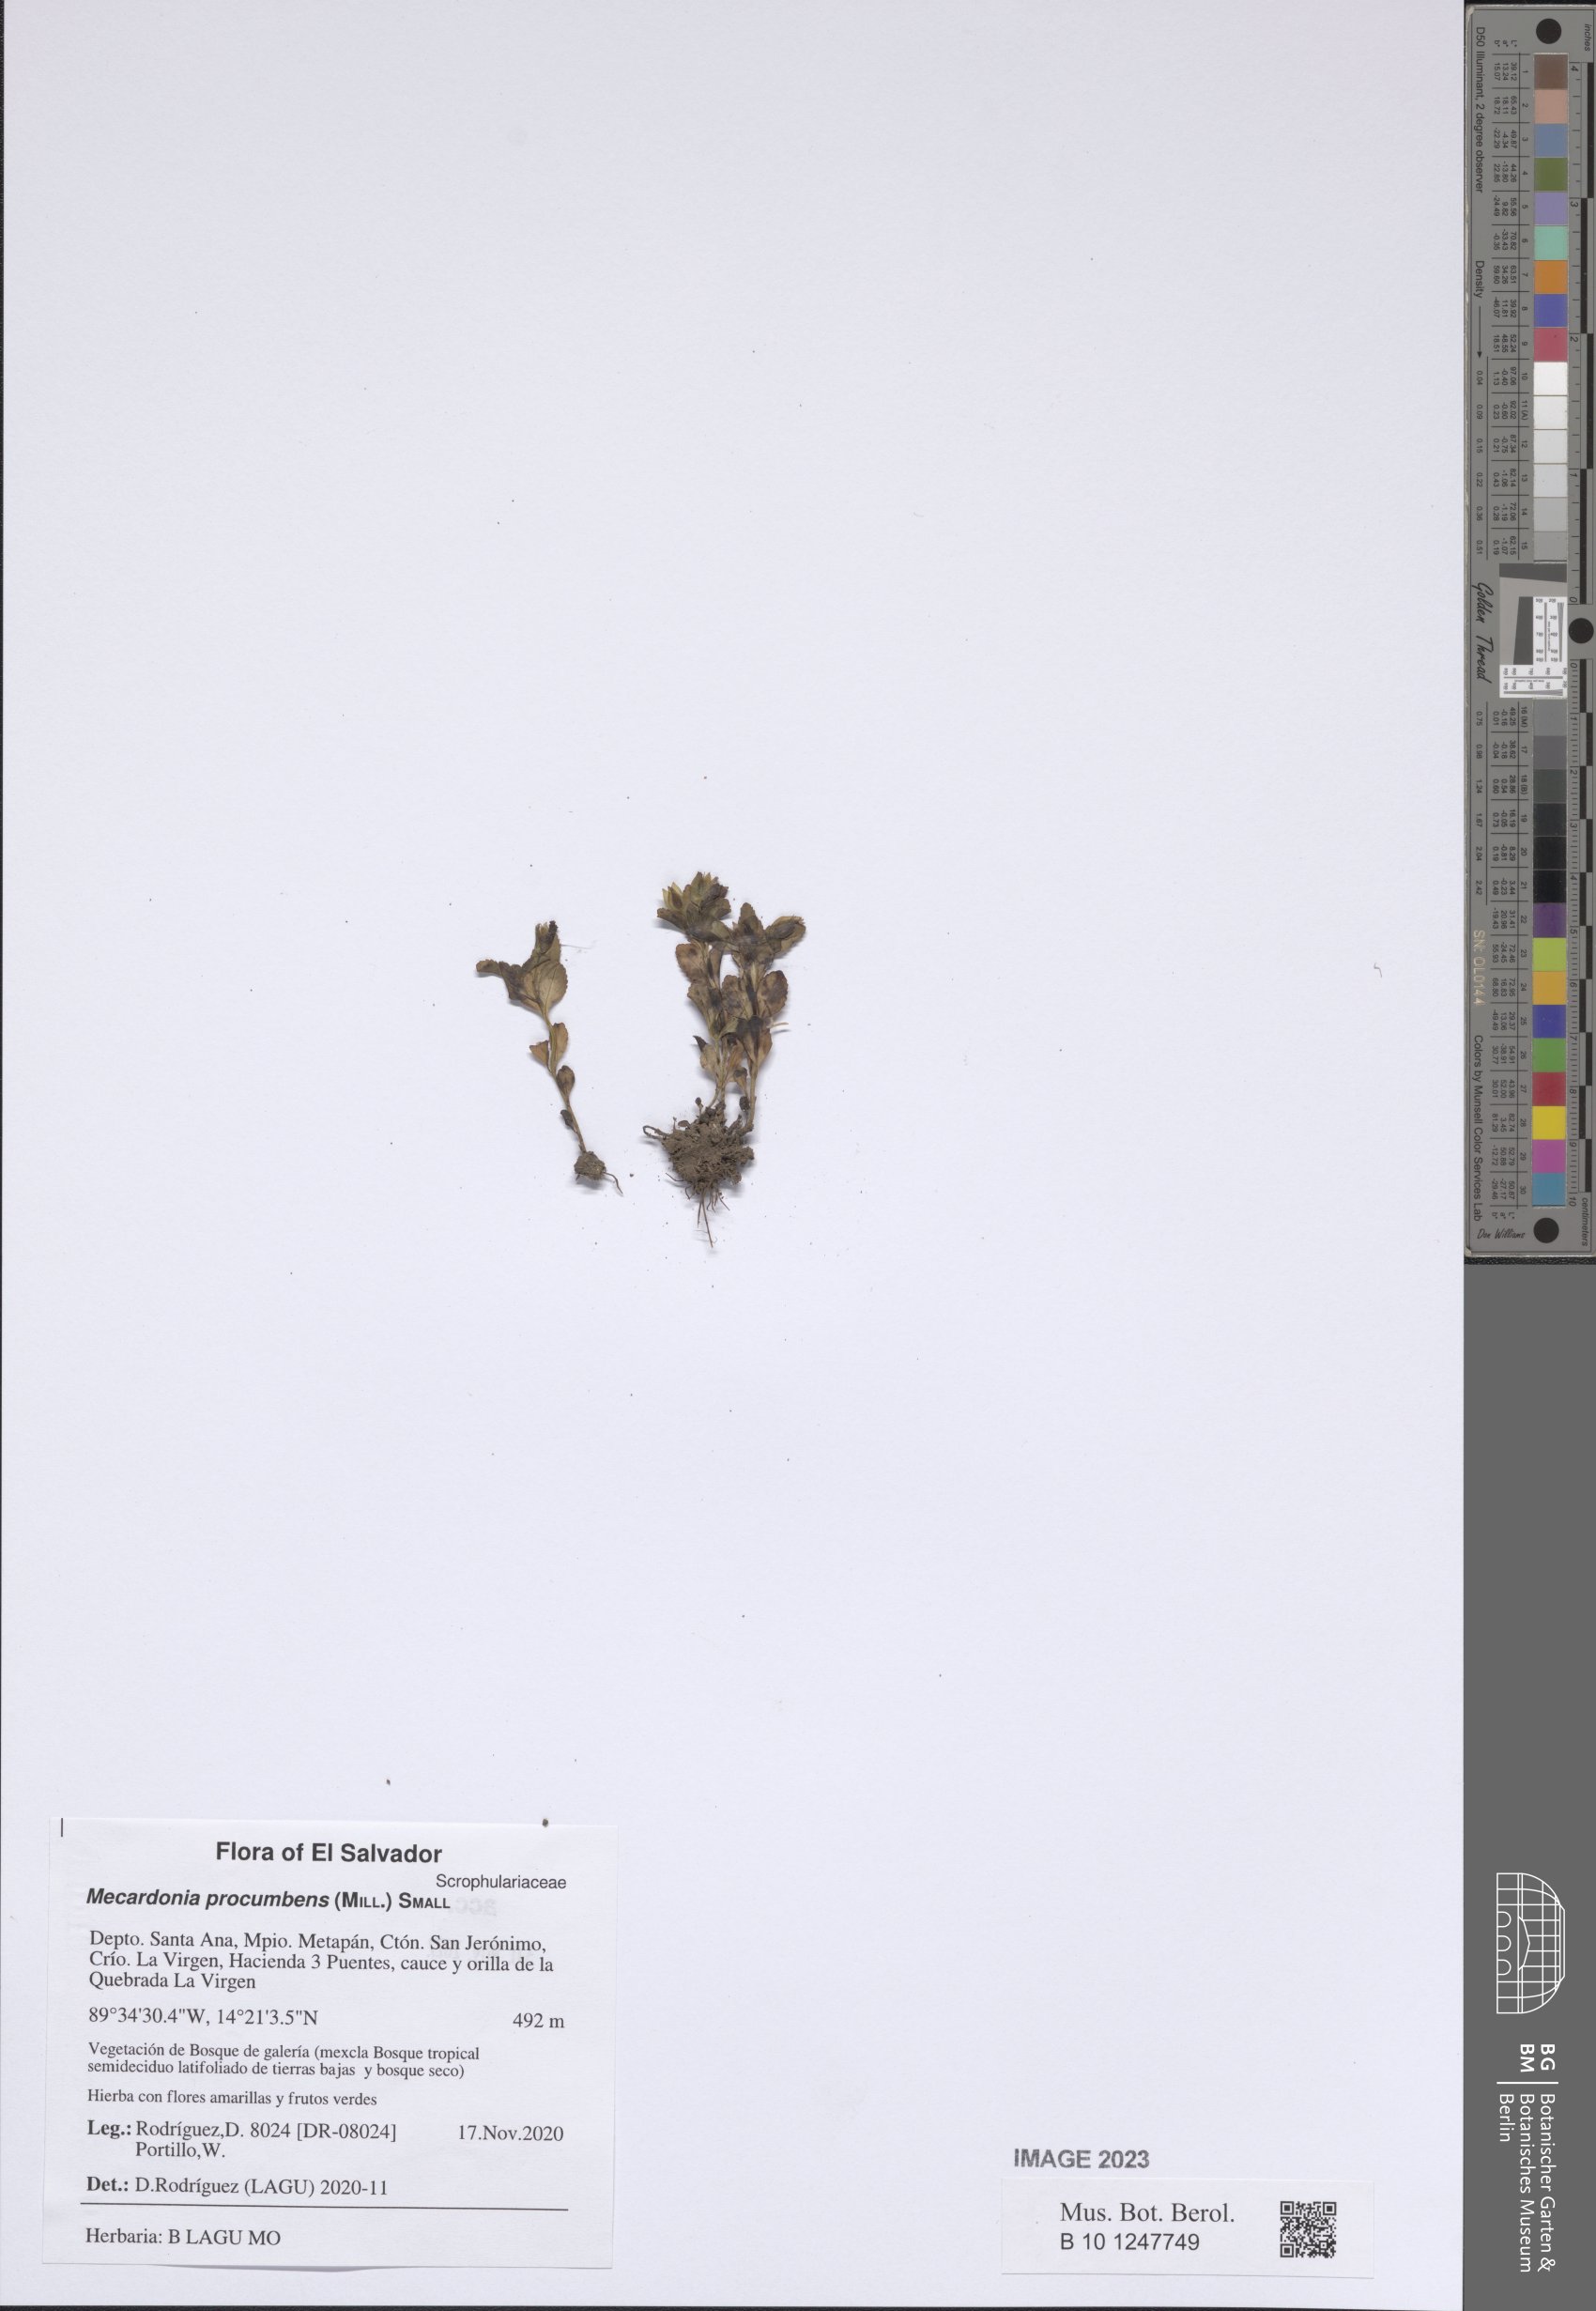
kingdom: Plantae
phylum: Tracheophyta
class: Magnoliopsida
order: Lamiales
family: Plantaginaceae
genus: Mecardonia
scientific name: Mecardonia procumbens
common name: Baby jump-up
